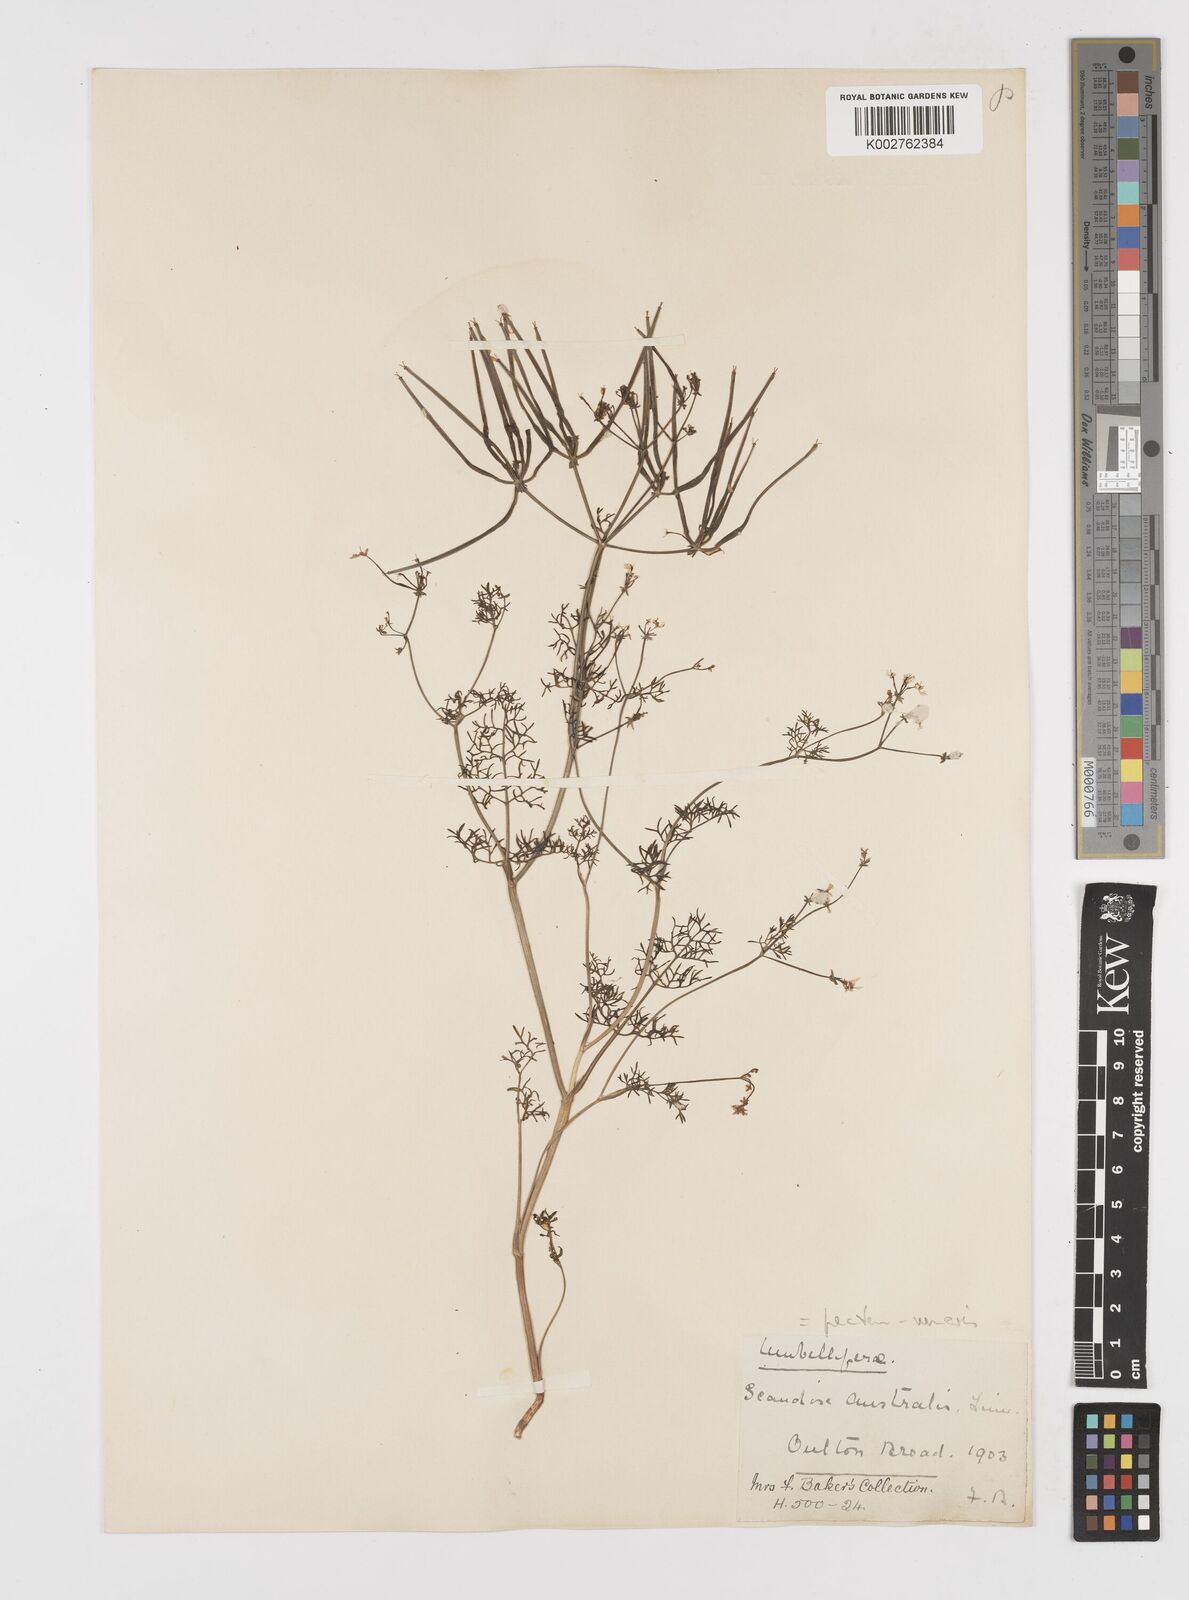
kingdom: Plantae
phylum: Tracheophyta
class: Magnoliopsida
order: Apiales
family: Apiaceae
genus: Scandix
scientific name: Scandix pecten-veneris
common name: Shepherd's-needle
